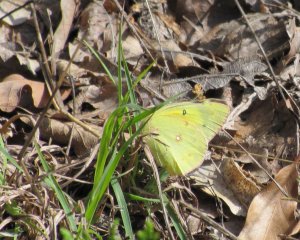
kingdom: Animalia
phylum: Arthropoda
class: Insecta
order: Lepidoptera
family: Pieridae
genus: Colias
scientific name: Colias philodice
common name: Clouded Sulphur
